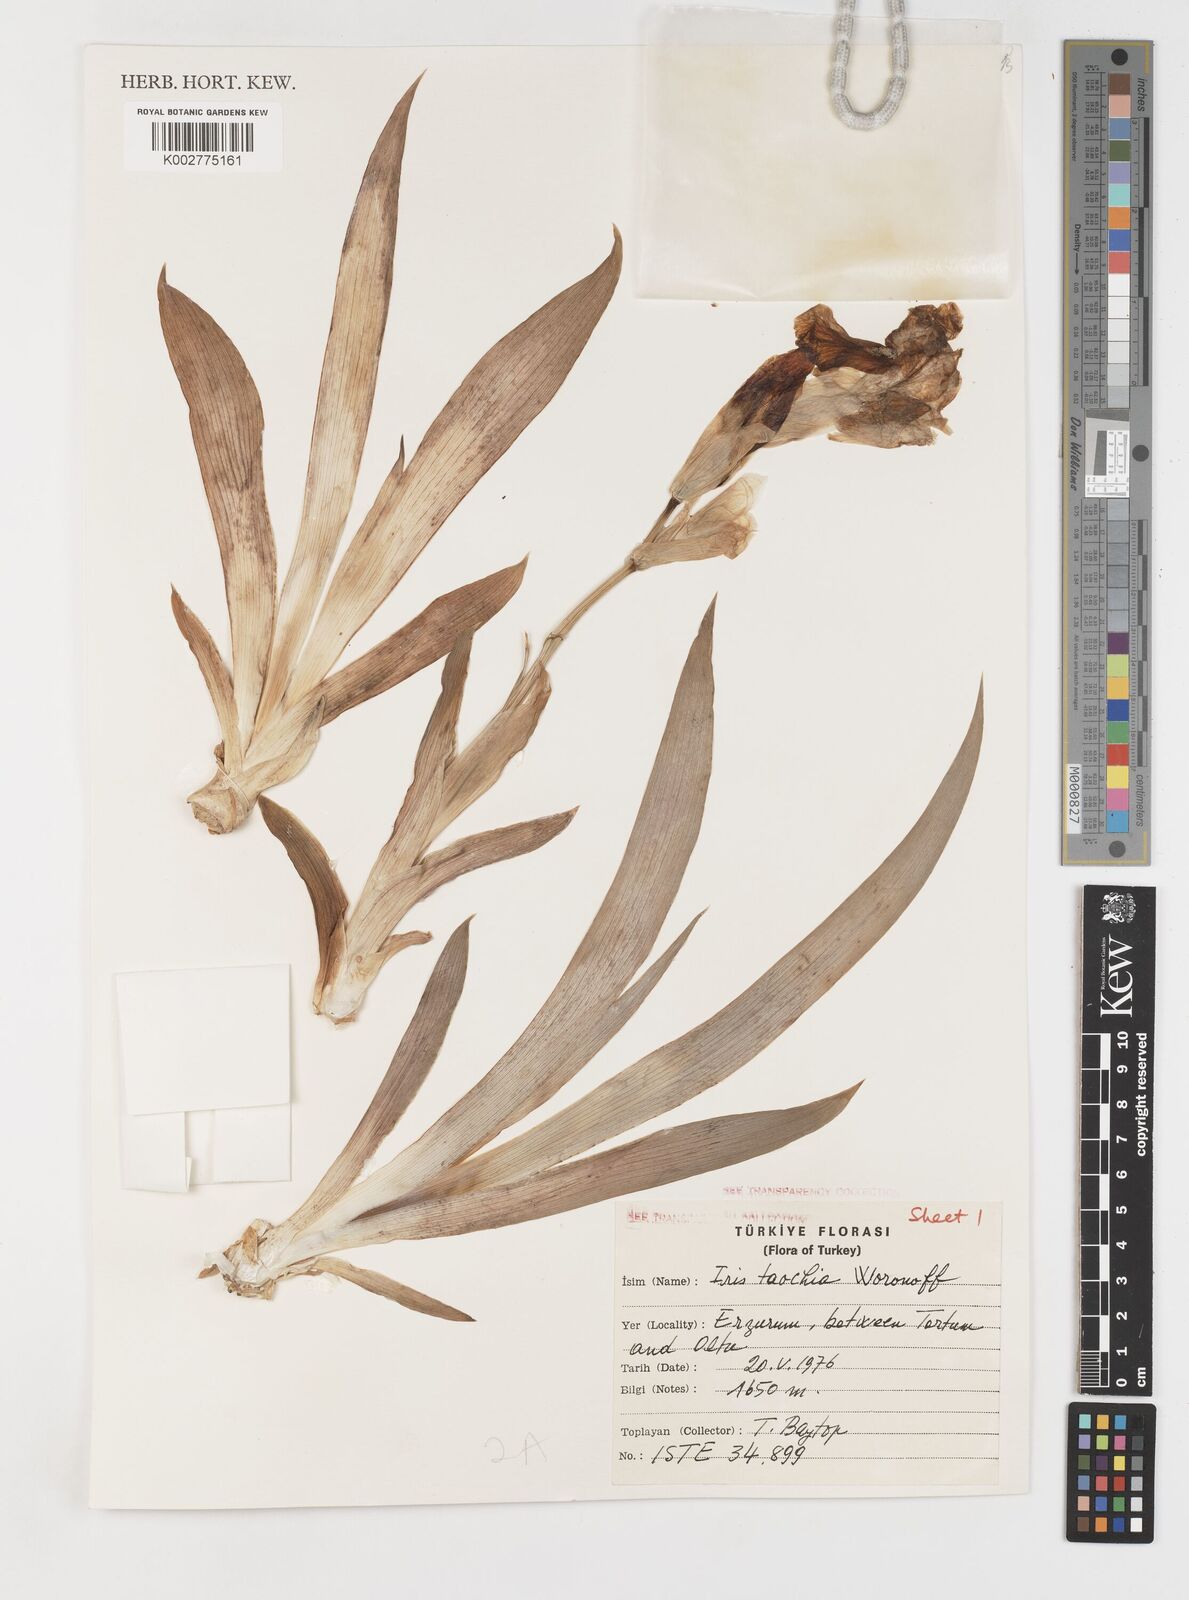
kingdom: Plantae
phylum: Tracheophyta
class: Liliopsida
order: Asparagales
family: Iridaceae
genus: Iris
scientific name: Iris taochia
